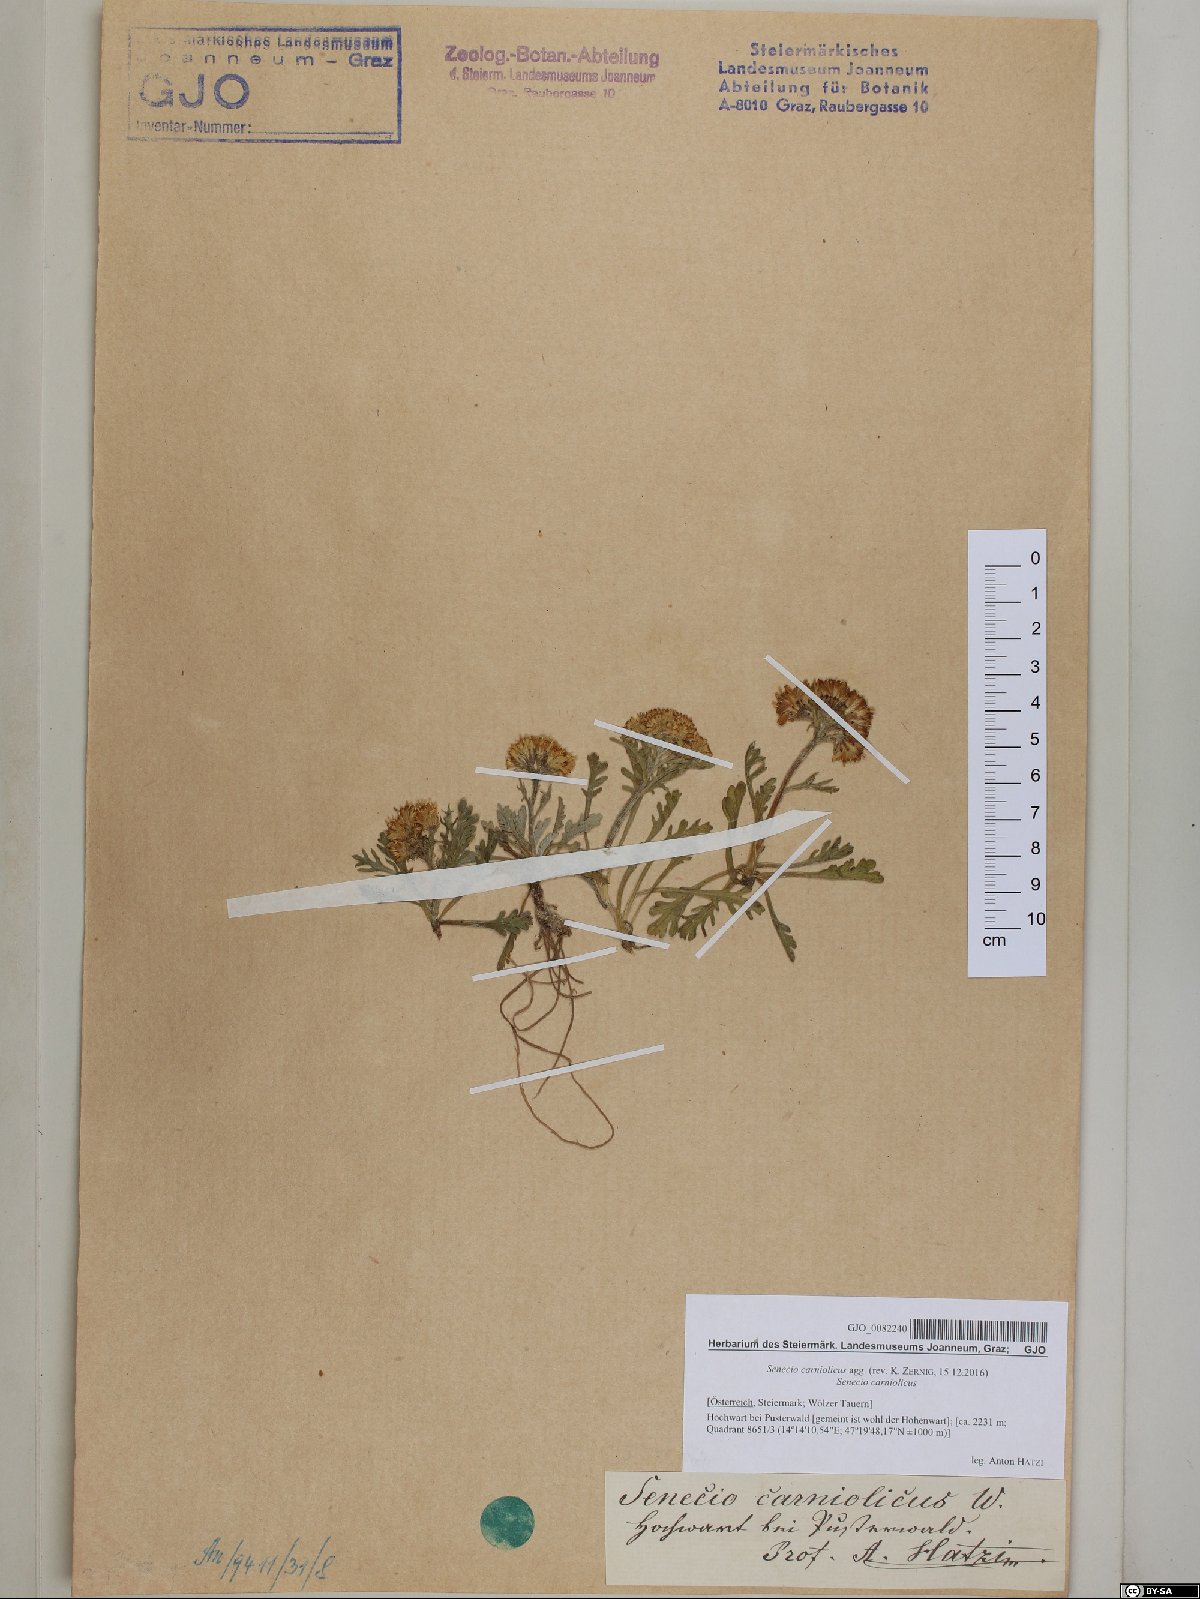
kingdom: Plantae
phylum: Tracheophyta
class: Magnoliopsida
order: Asterales
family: Asteraceae
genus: Jacobaea
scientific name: Jacobaea carniolica
